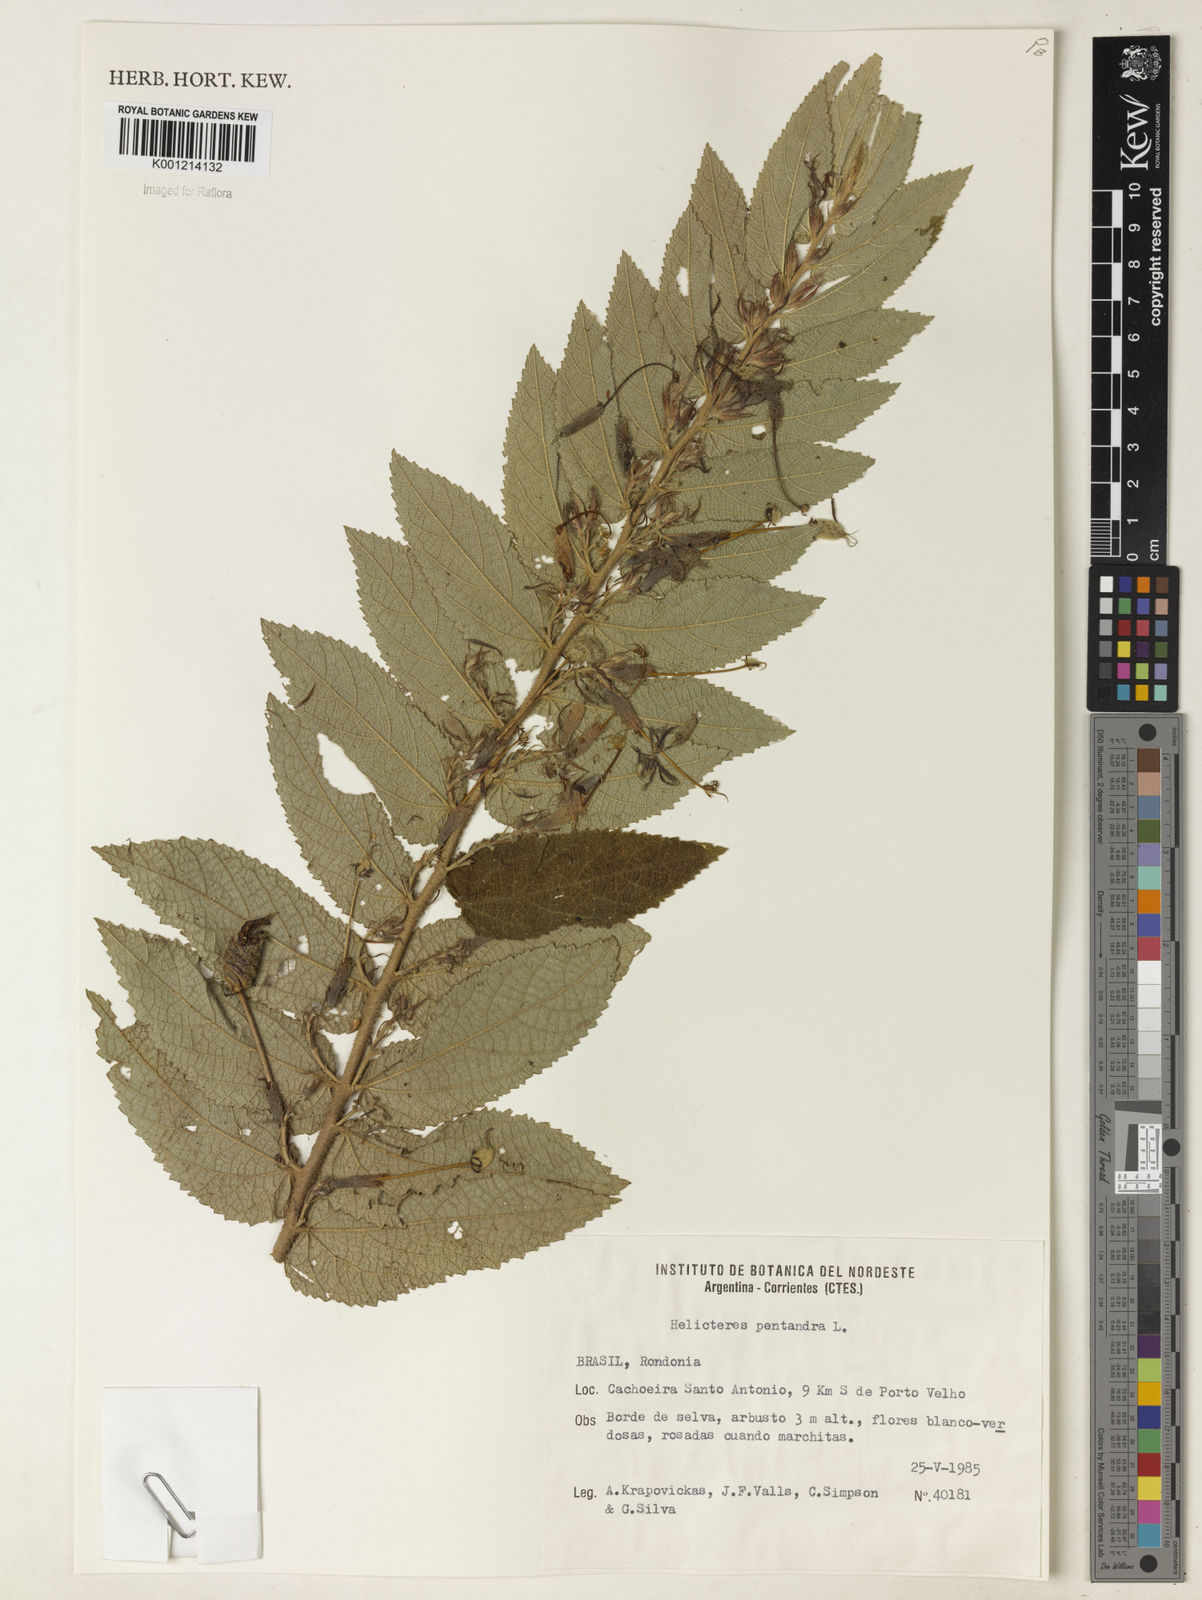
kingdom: Plantae
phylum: Tracheophyta
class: Magnoliopsida
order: Malvales
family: Malvaceae
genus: Helicteres
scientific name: Helicteres pentandra
